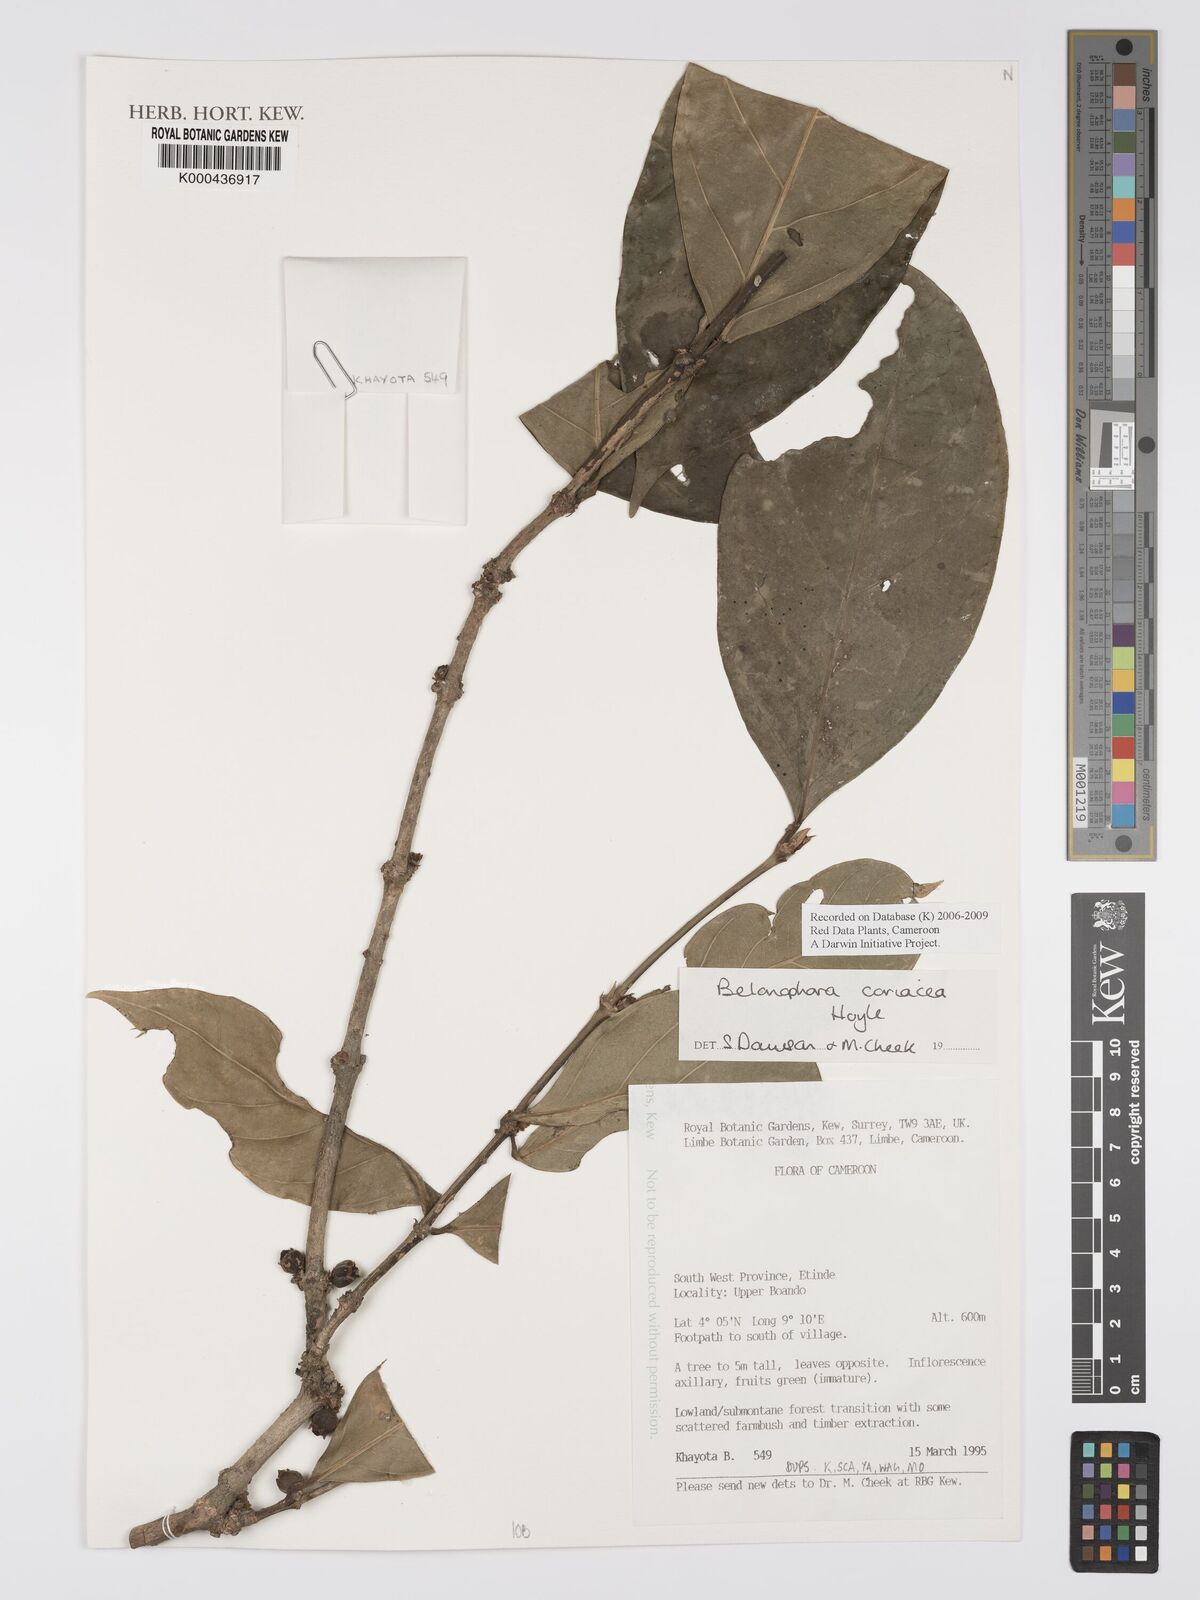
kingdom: Plantae
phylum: Tracheophyta
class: Magnoliopsida
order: Gentianales
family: Rubiaceae
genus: Belonophora
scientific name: Belonophora coriacea
